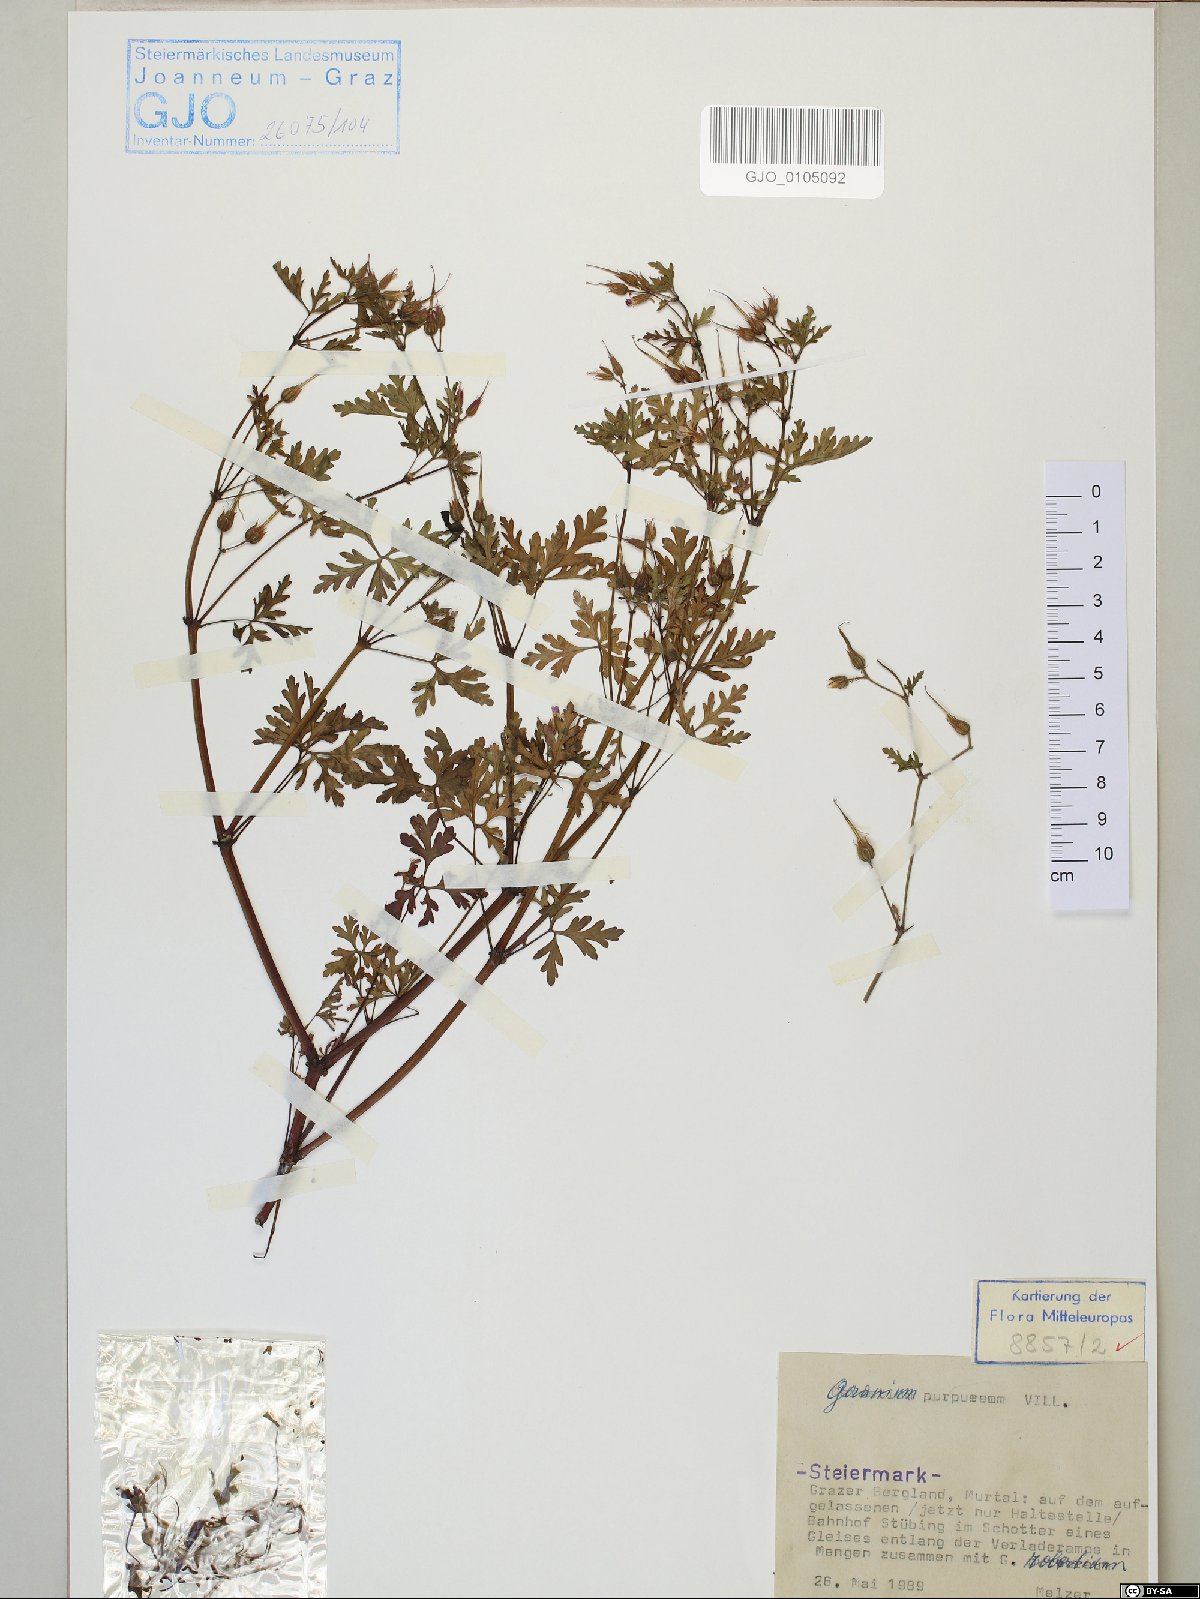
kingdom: Plantae
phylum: Tracheophyta
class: Magnoliopsida
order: Geraniales
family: Geraniaceae
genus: Geranium
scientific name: Geranium purpureum
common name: Little-robin
